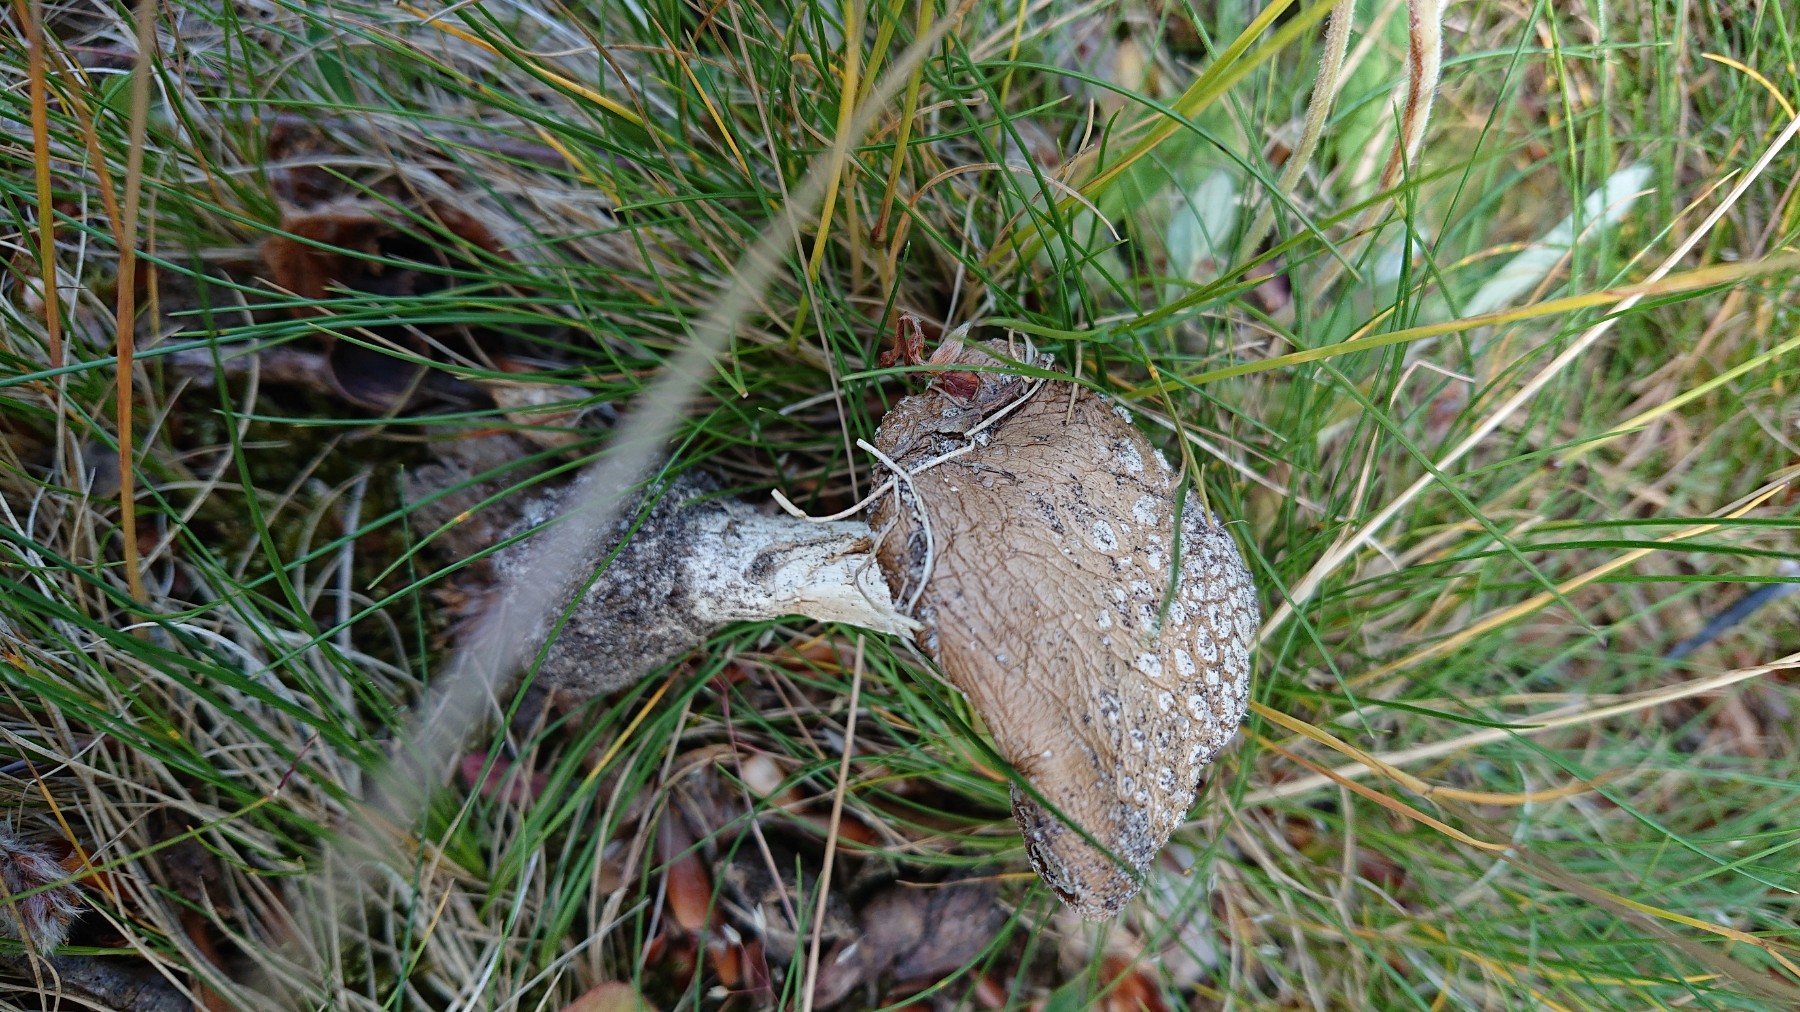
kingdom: Fungi
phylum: Basidiomycota
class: Agaricomycetes
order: Agaricales
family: Amanitaceae
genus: Amanita
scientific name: Amanita pantherina
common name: panter-fluesvamp
